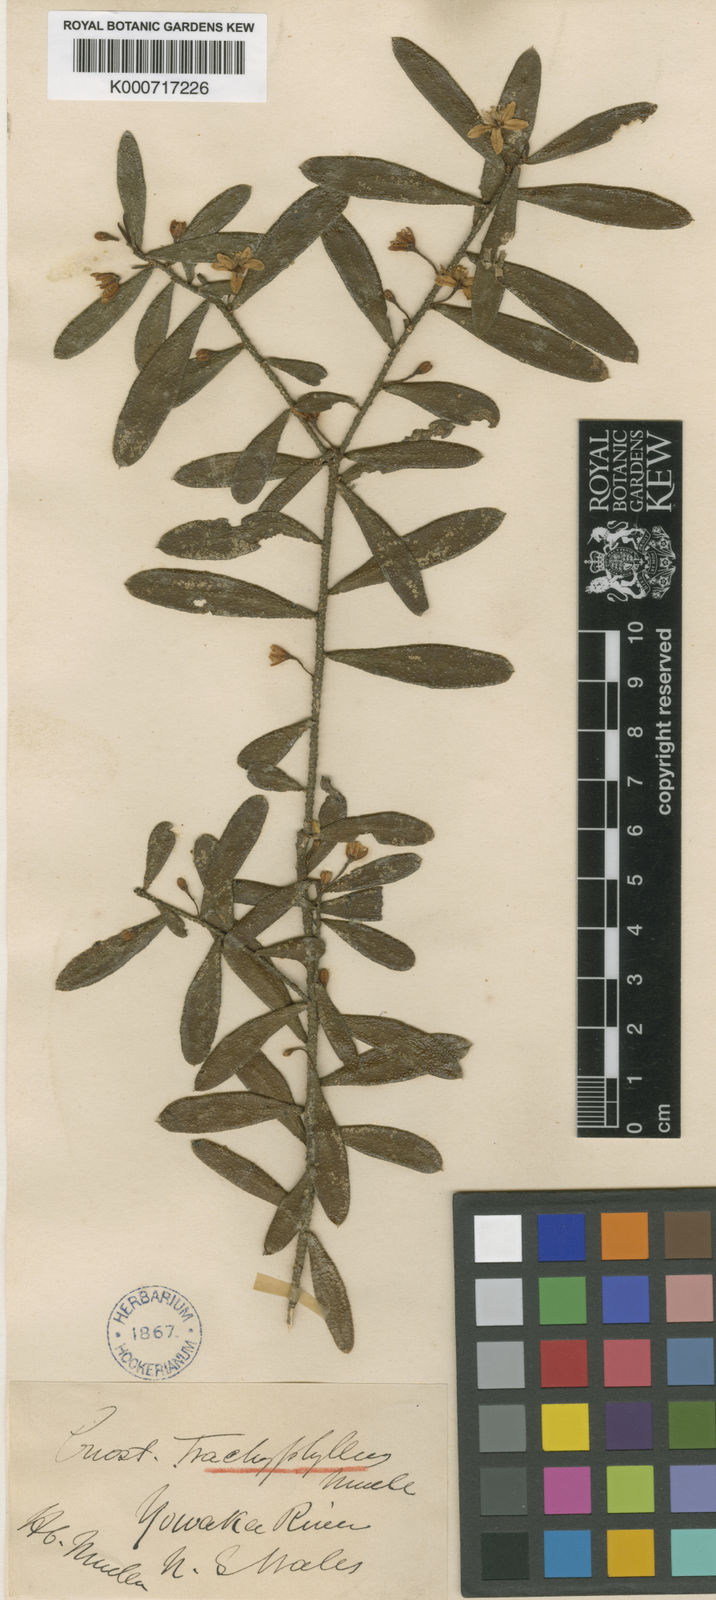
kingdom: Plantae
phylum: Tracheophyta
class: Magnoliopsida
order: Sapindales
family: Rutaceae
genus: Philotheca
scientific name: Philotheca trachyphylla
